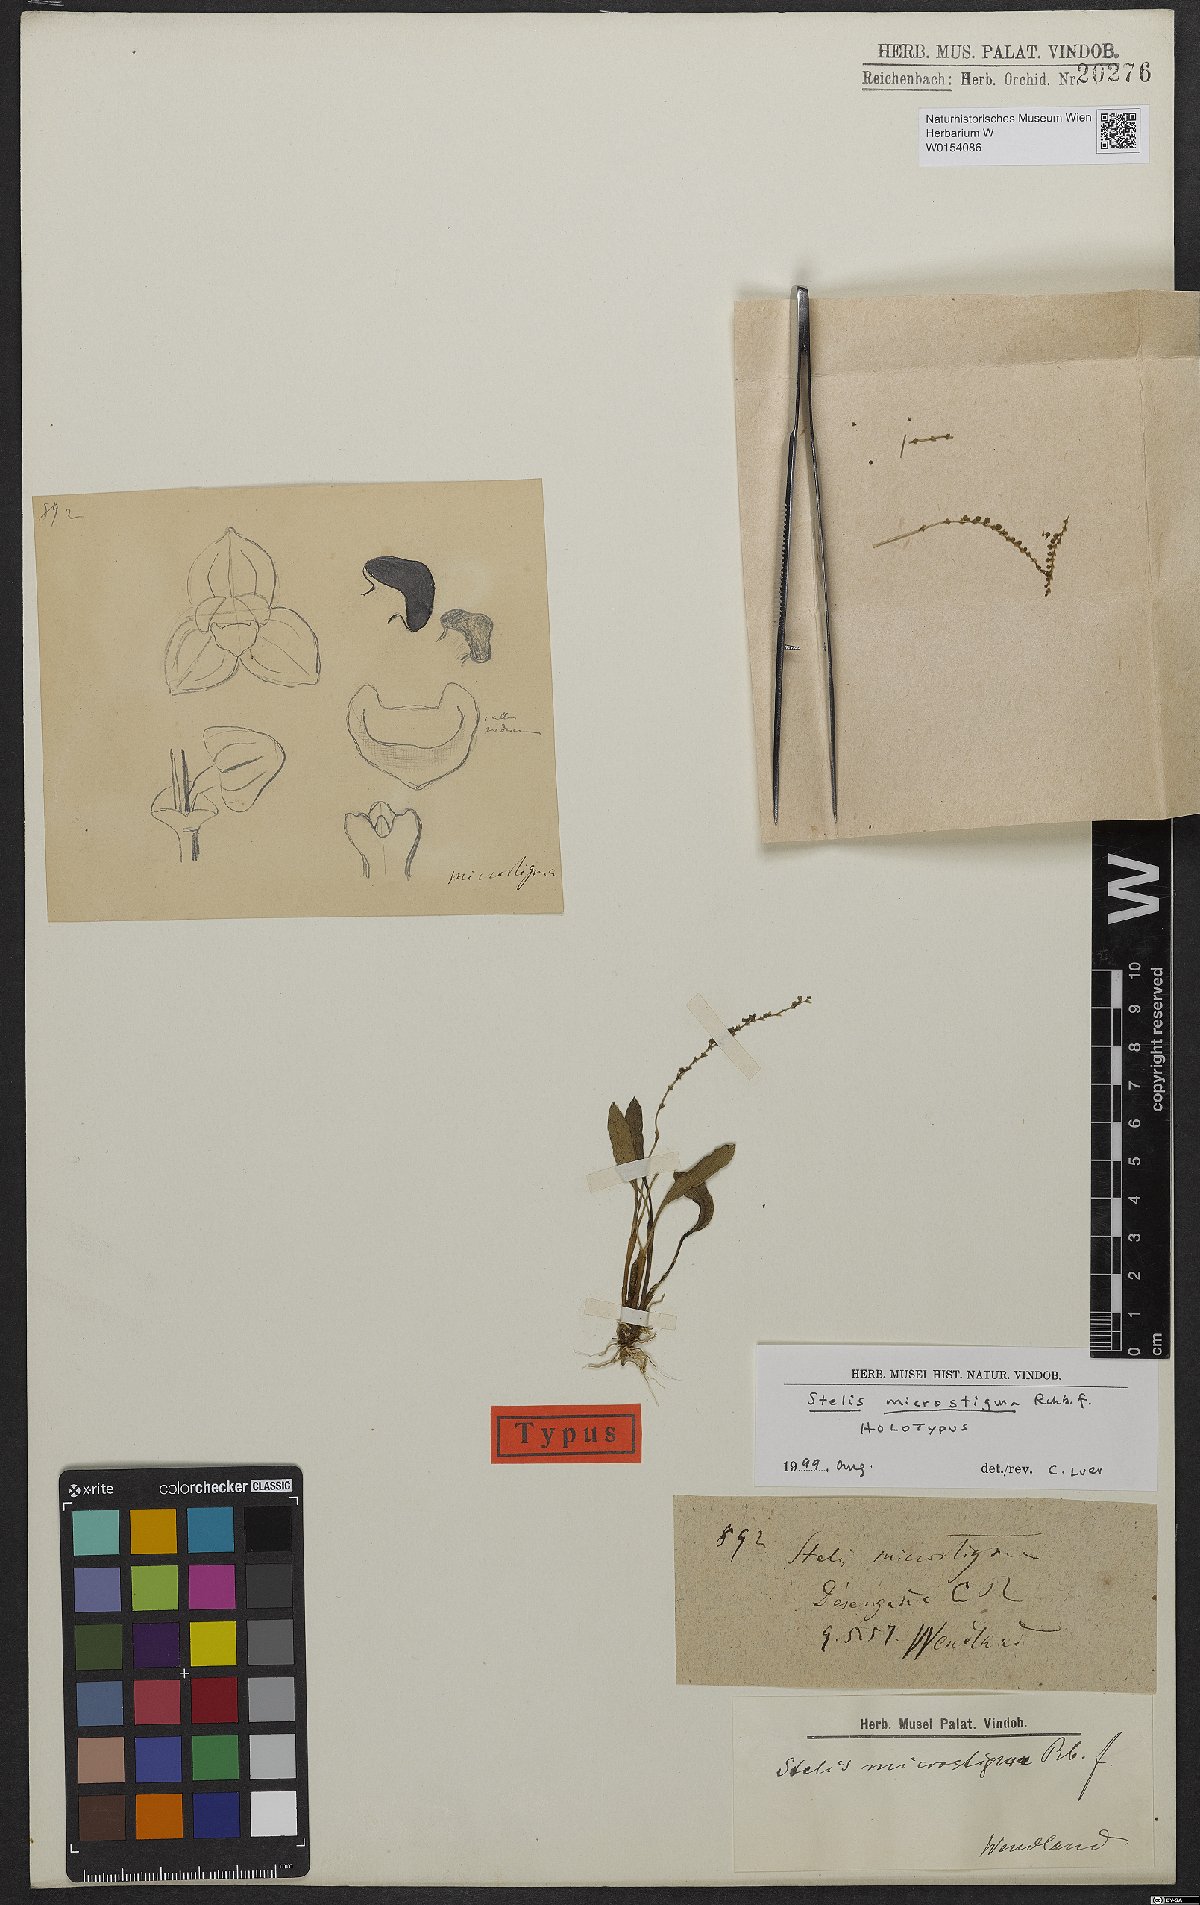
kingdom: Plantae
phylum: Tracheophyta
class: Liliopsida
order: Asparagales
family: Orchidaceae
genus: Stelis
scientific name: Stelis microstigma
